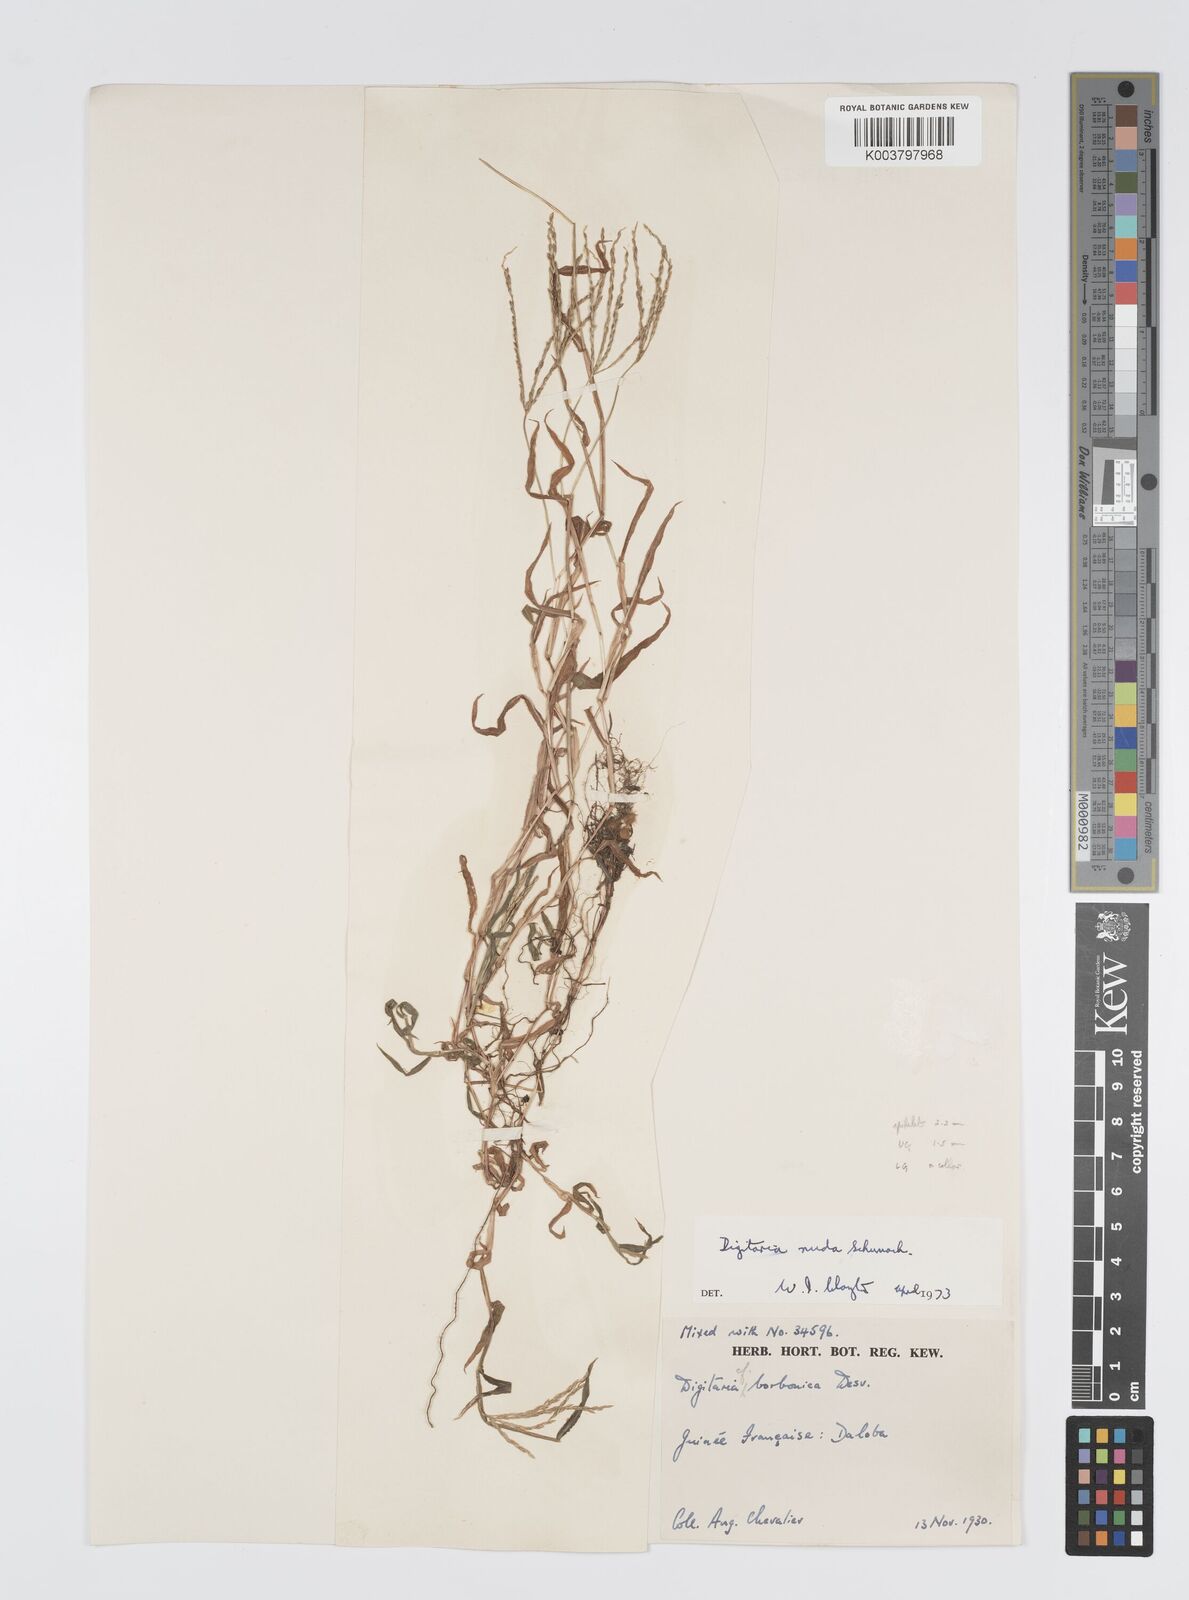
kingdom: Plantae
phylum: Tracheophyta
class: Liliopsida
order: Poales
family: Poaceae
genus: Digitaria
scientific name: Digitaria nuda
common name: Naked crabgrass
